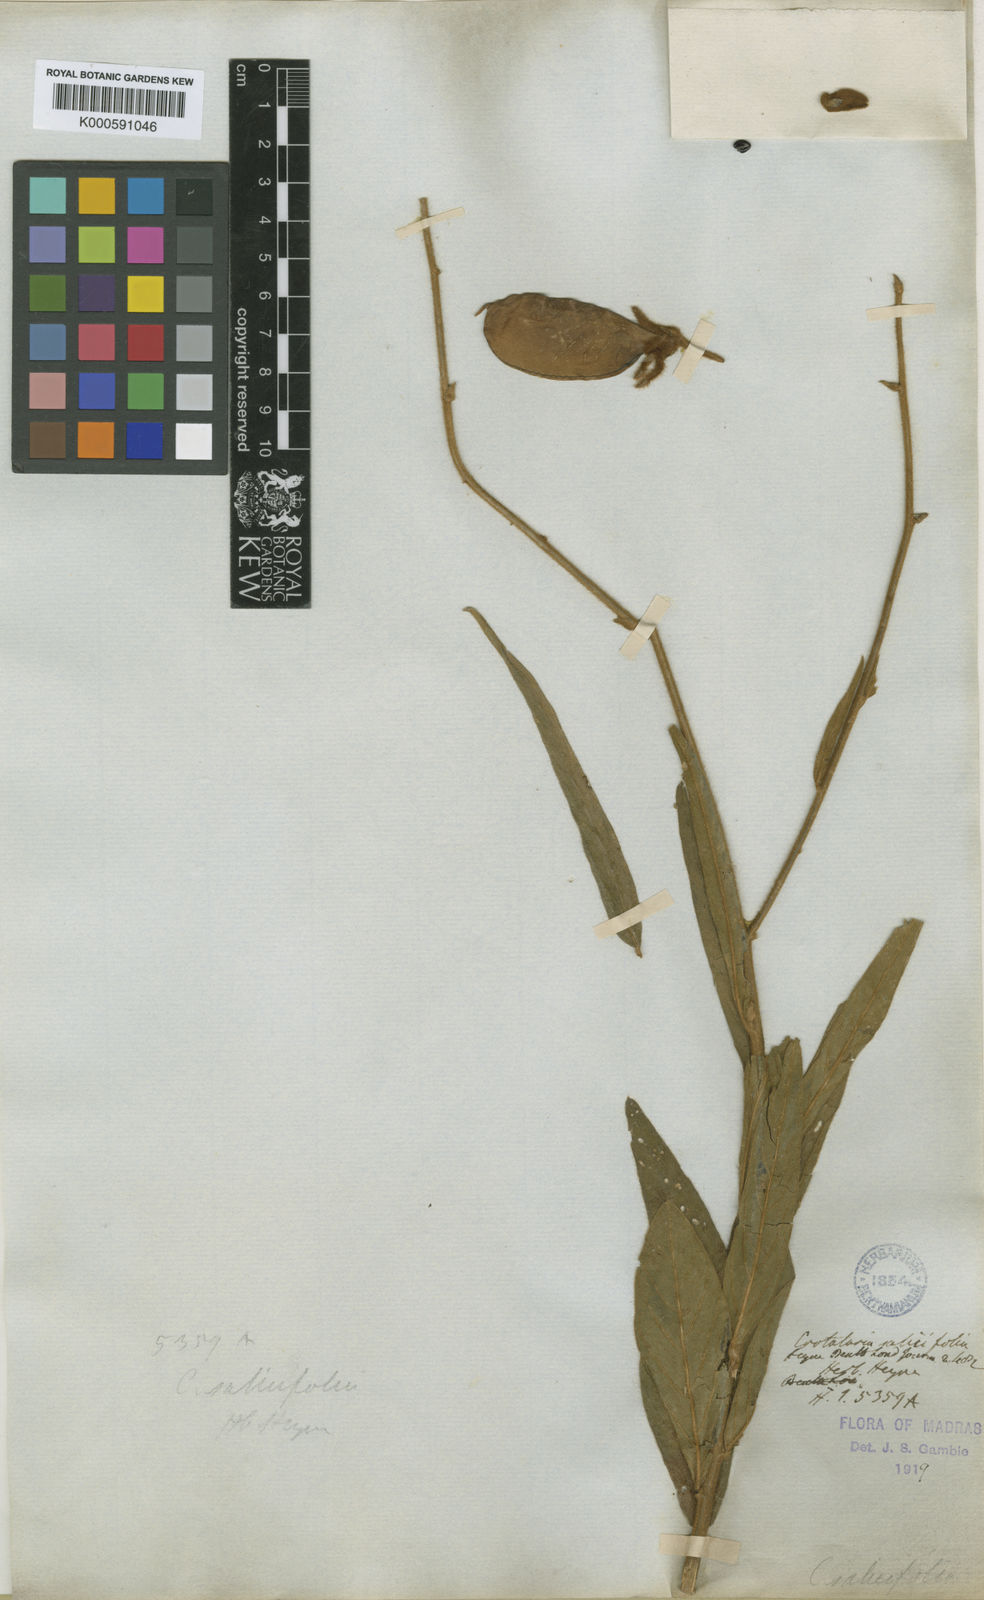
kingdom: Plantae
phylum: Tracheophyta
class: Magnoliopsida
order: Fabales
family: Fabaceae
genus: Crotalaria
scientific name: Crotalaria
